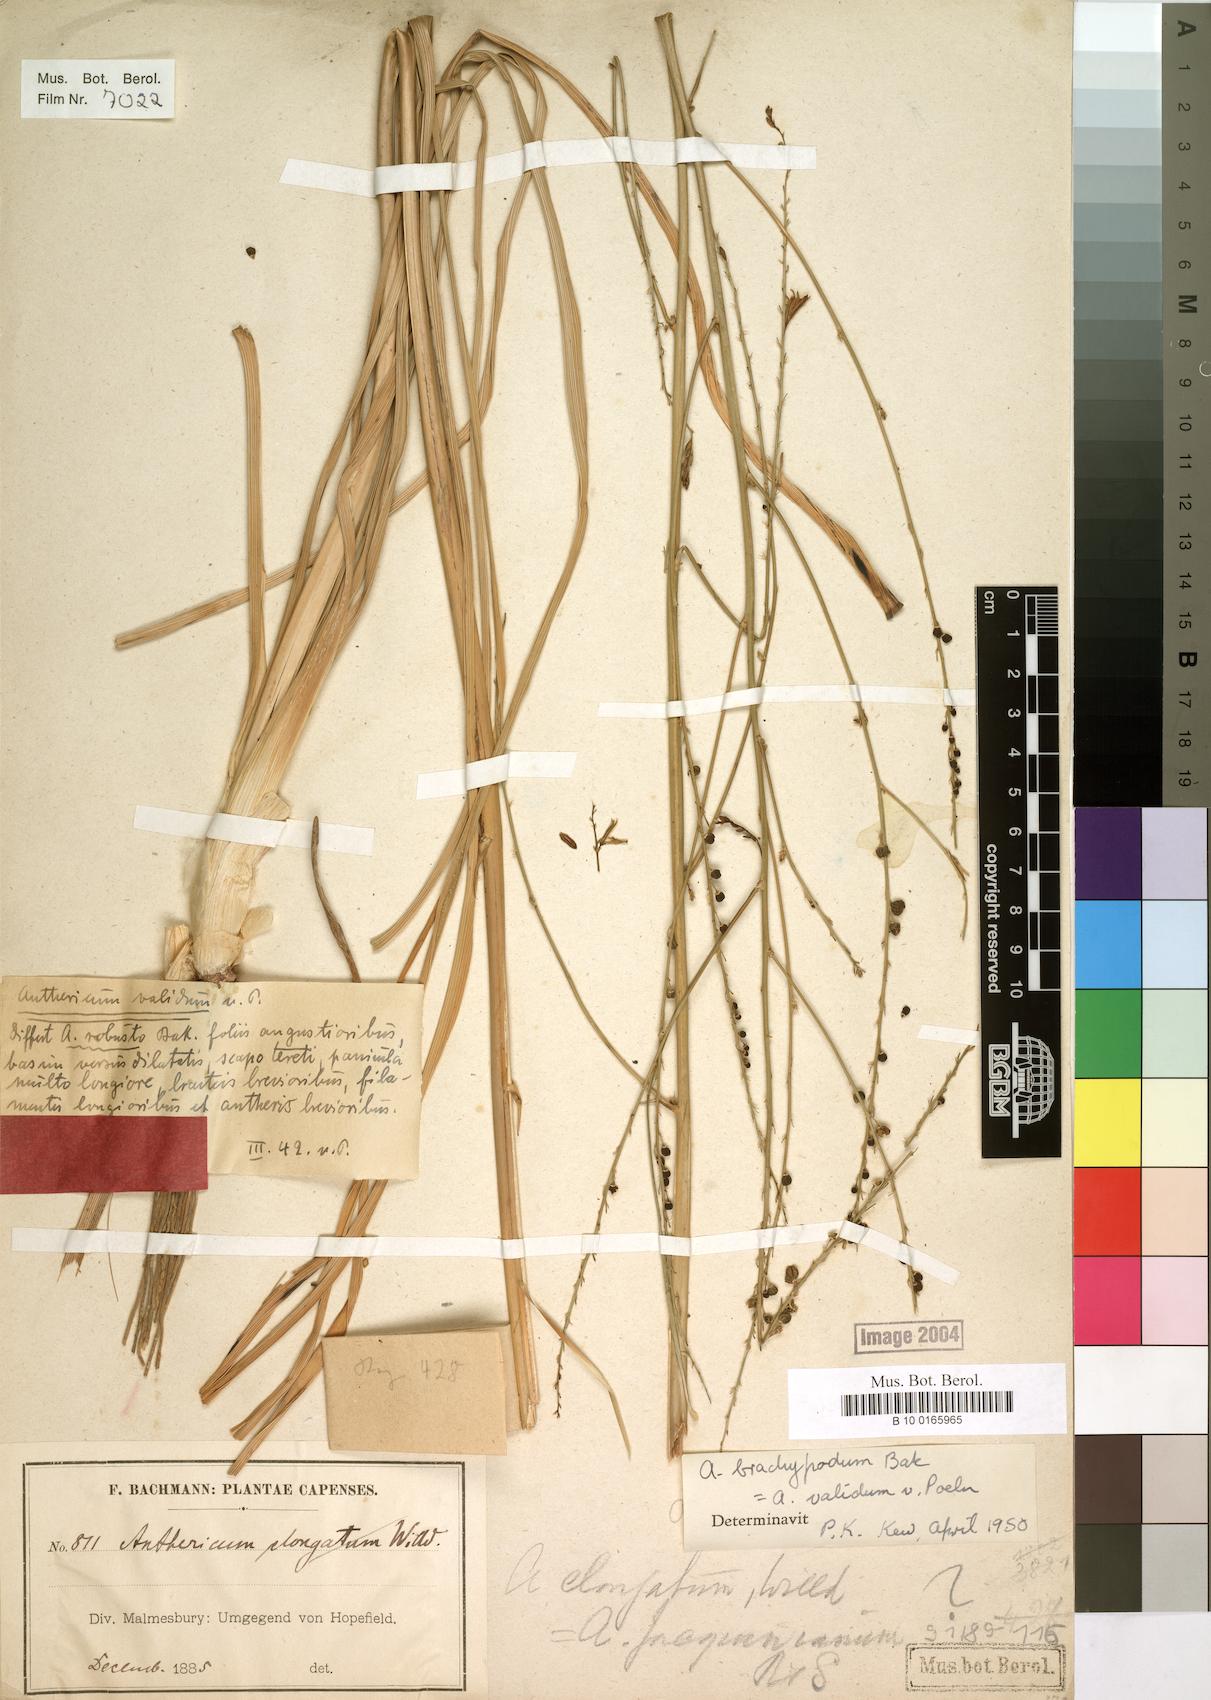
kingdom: Plantae
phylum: Tracheophyta
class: Liliopsida
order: Asparagales
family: Asphodelaceae
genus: Trachyandra
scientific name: Trachyandra brachypoda
